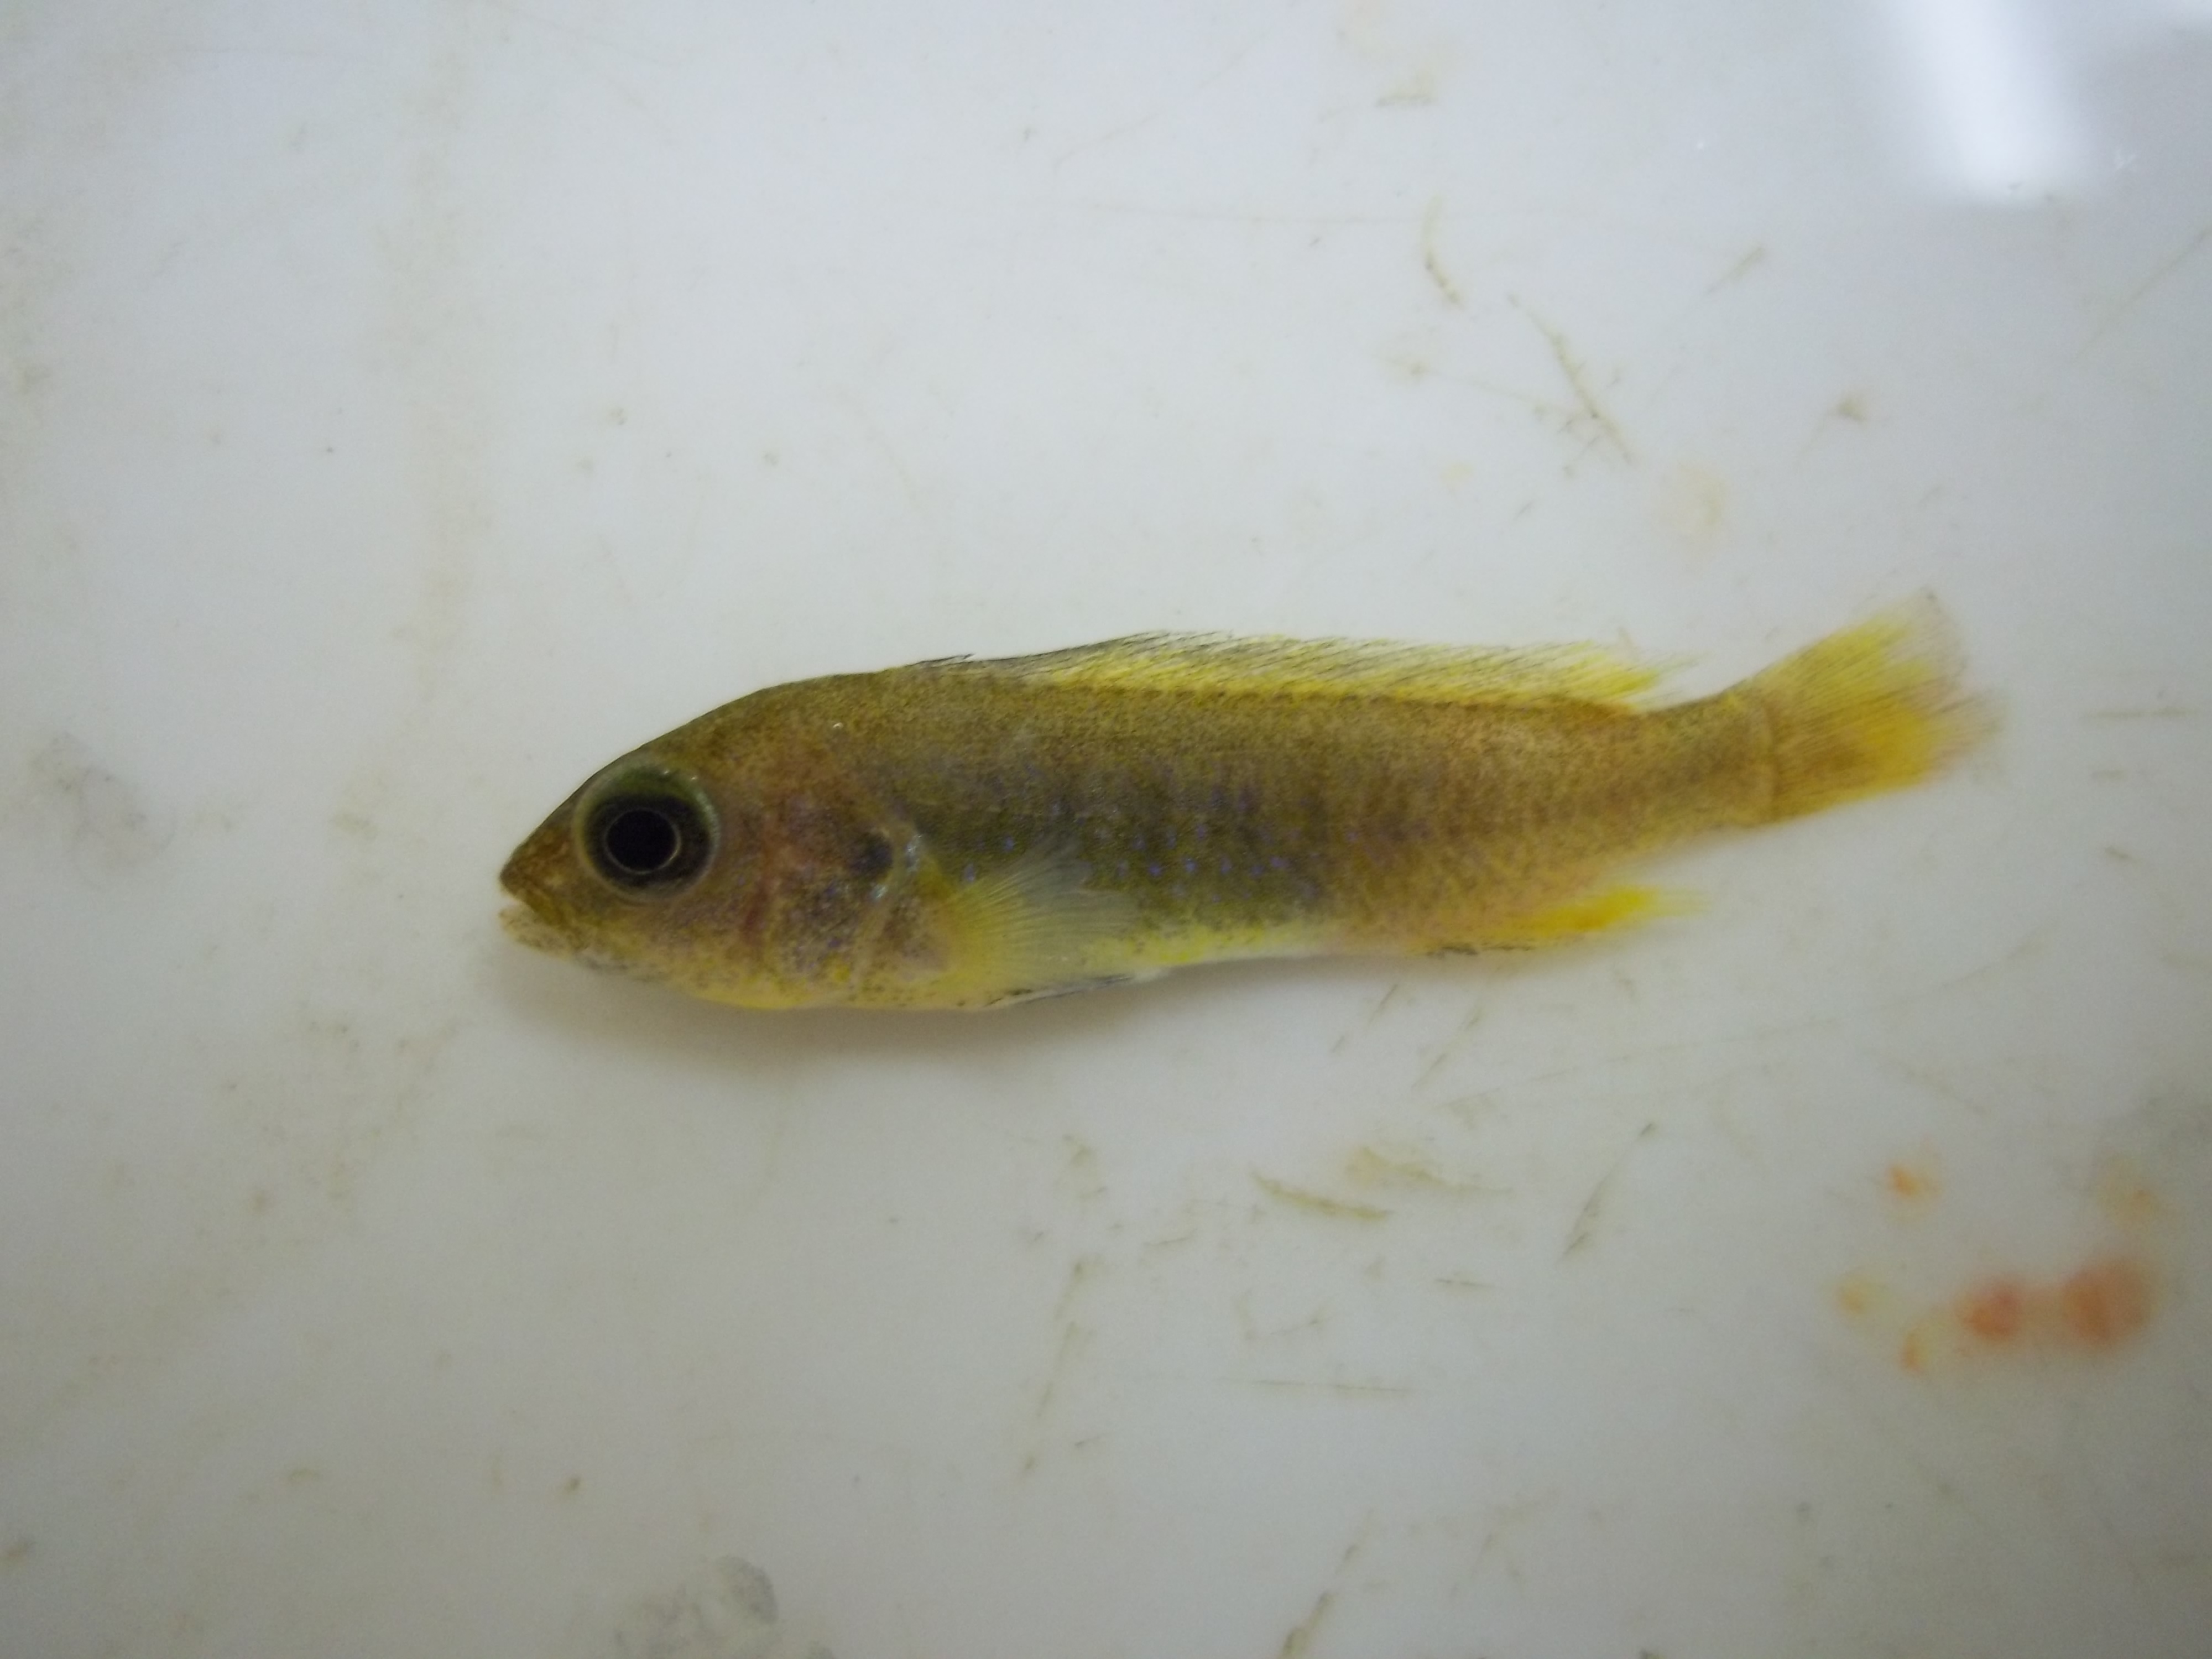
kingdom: Animalia
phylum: Chordata
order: Perciformes
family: Cichlidae
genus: Pseudotropheus
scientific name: Pseudotropheus johannii
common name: Bluegray mbuna
